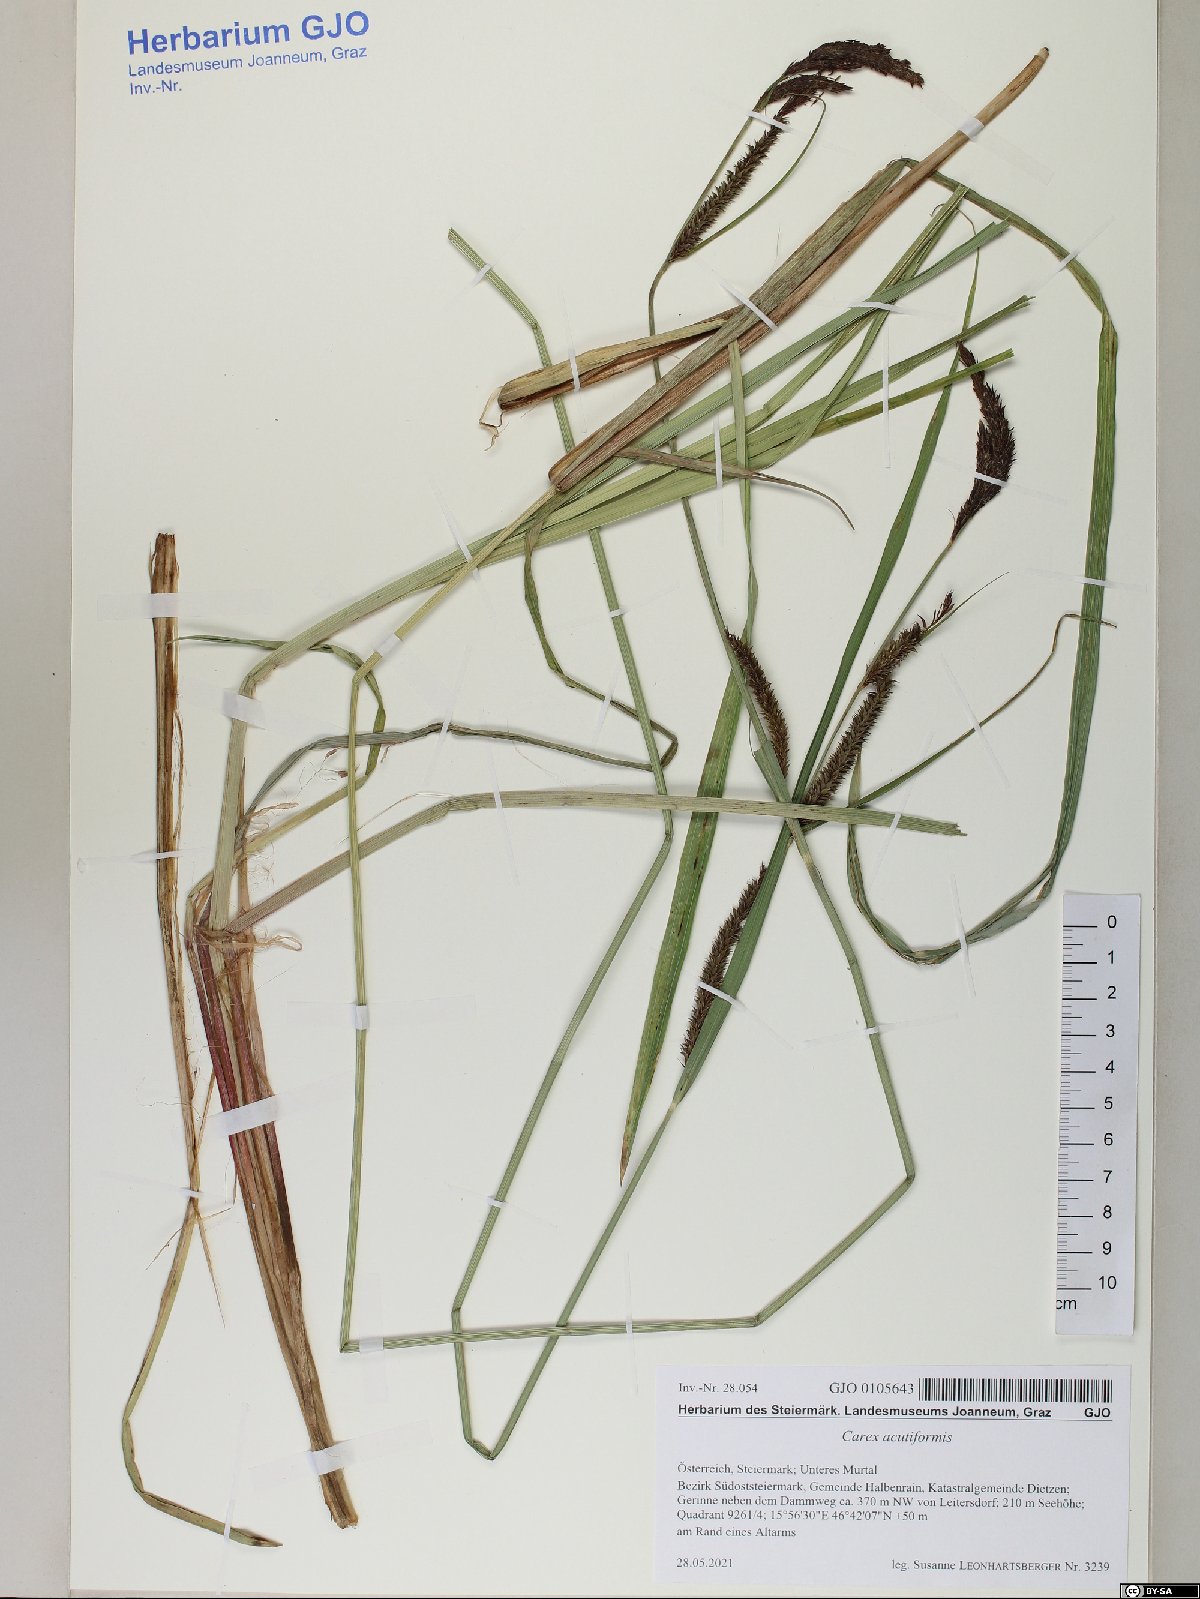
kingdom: Plantae
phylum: Tracheophyta
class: Liliopsida
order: Poales
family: Cyperaceae
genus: Carex
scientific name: Carex acutiformis
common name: Lesser pond-sedge
